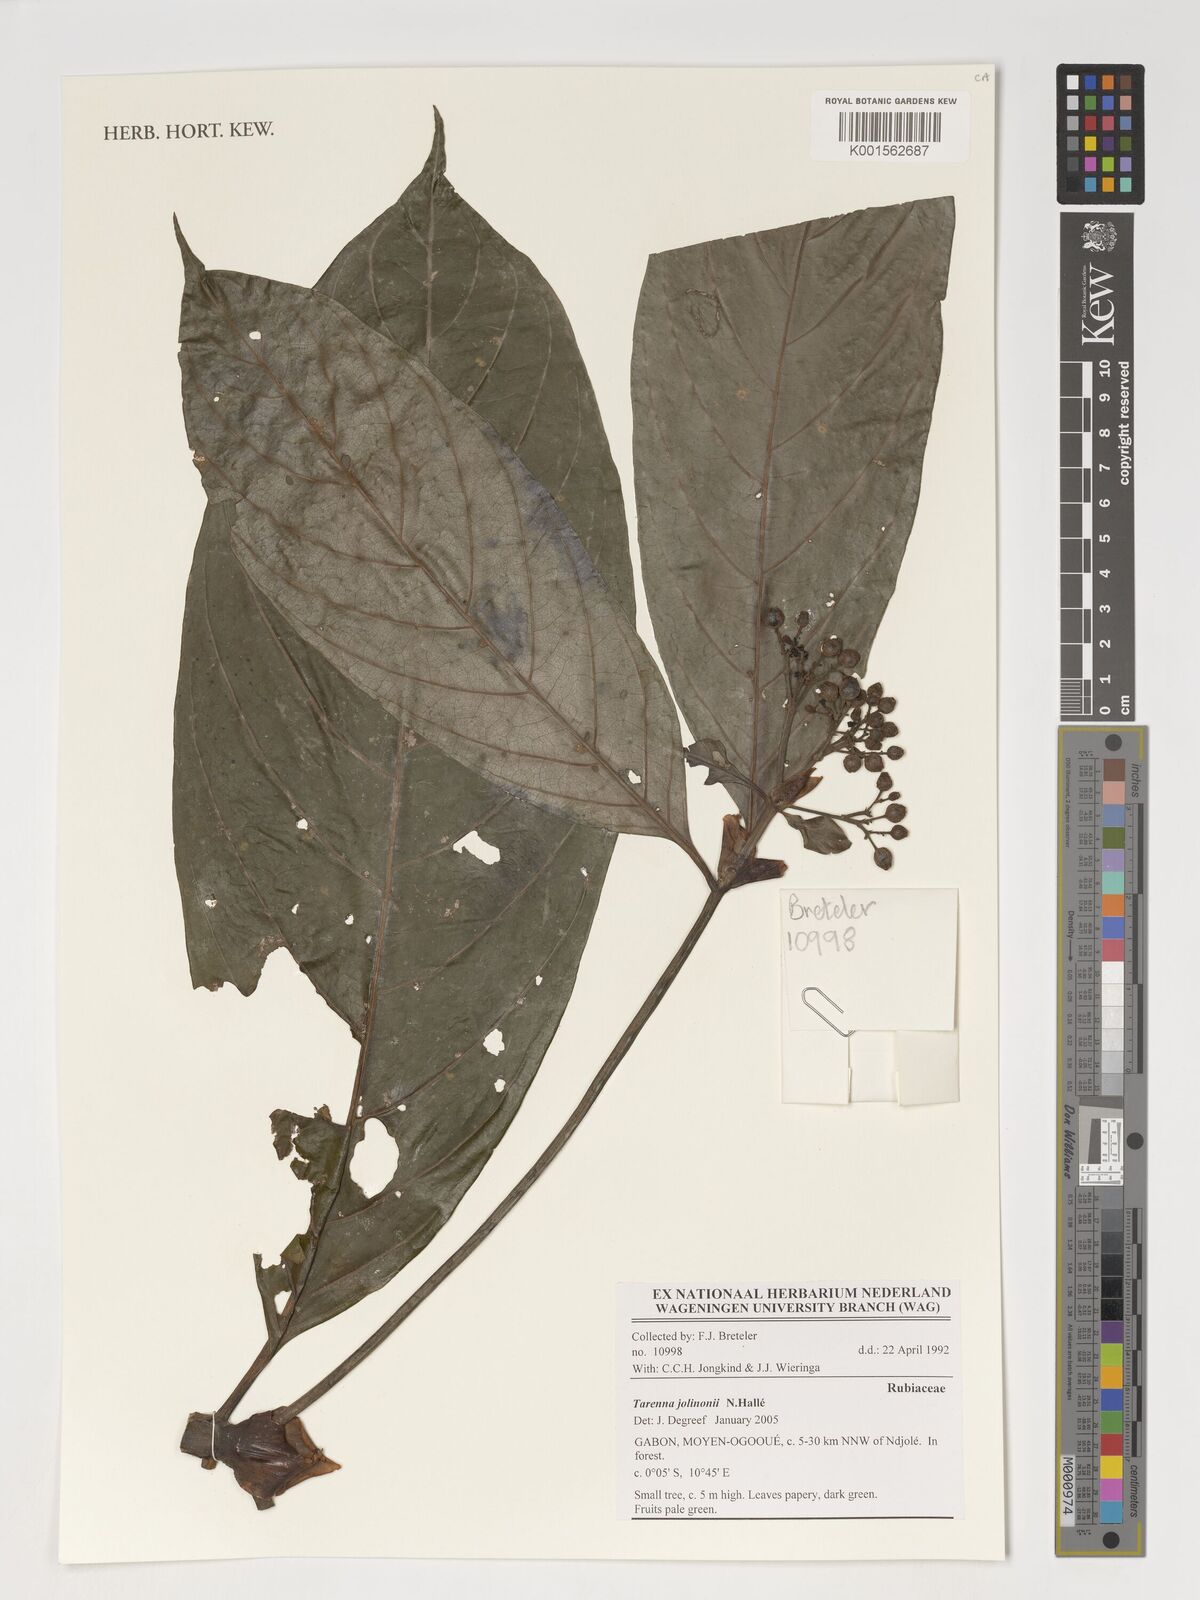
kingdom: Plantae
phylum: Tracheophyta
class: Magnoliopsida
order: Gentianales
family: Rubiaceae
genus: Tarenna
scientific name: Tarenna jolinonii
